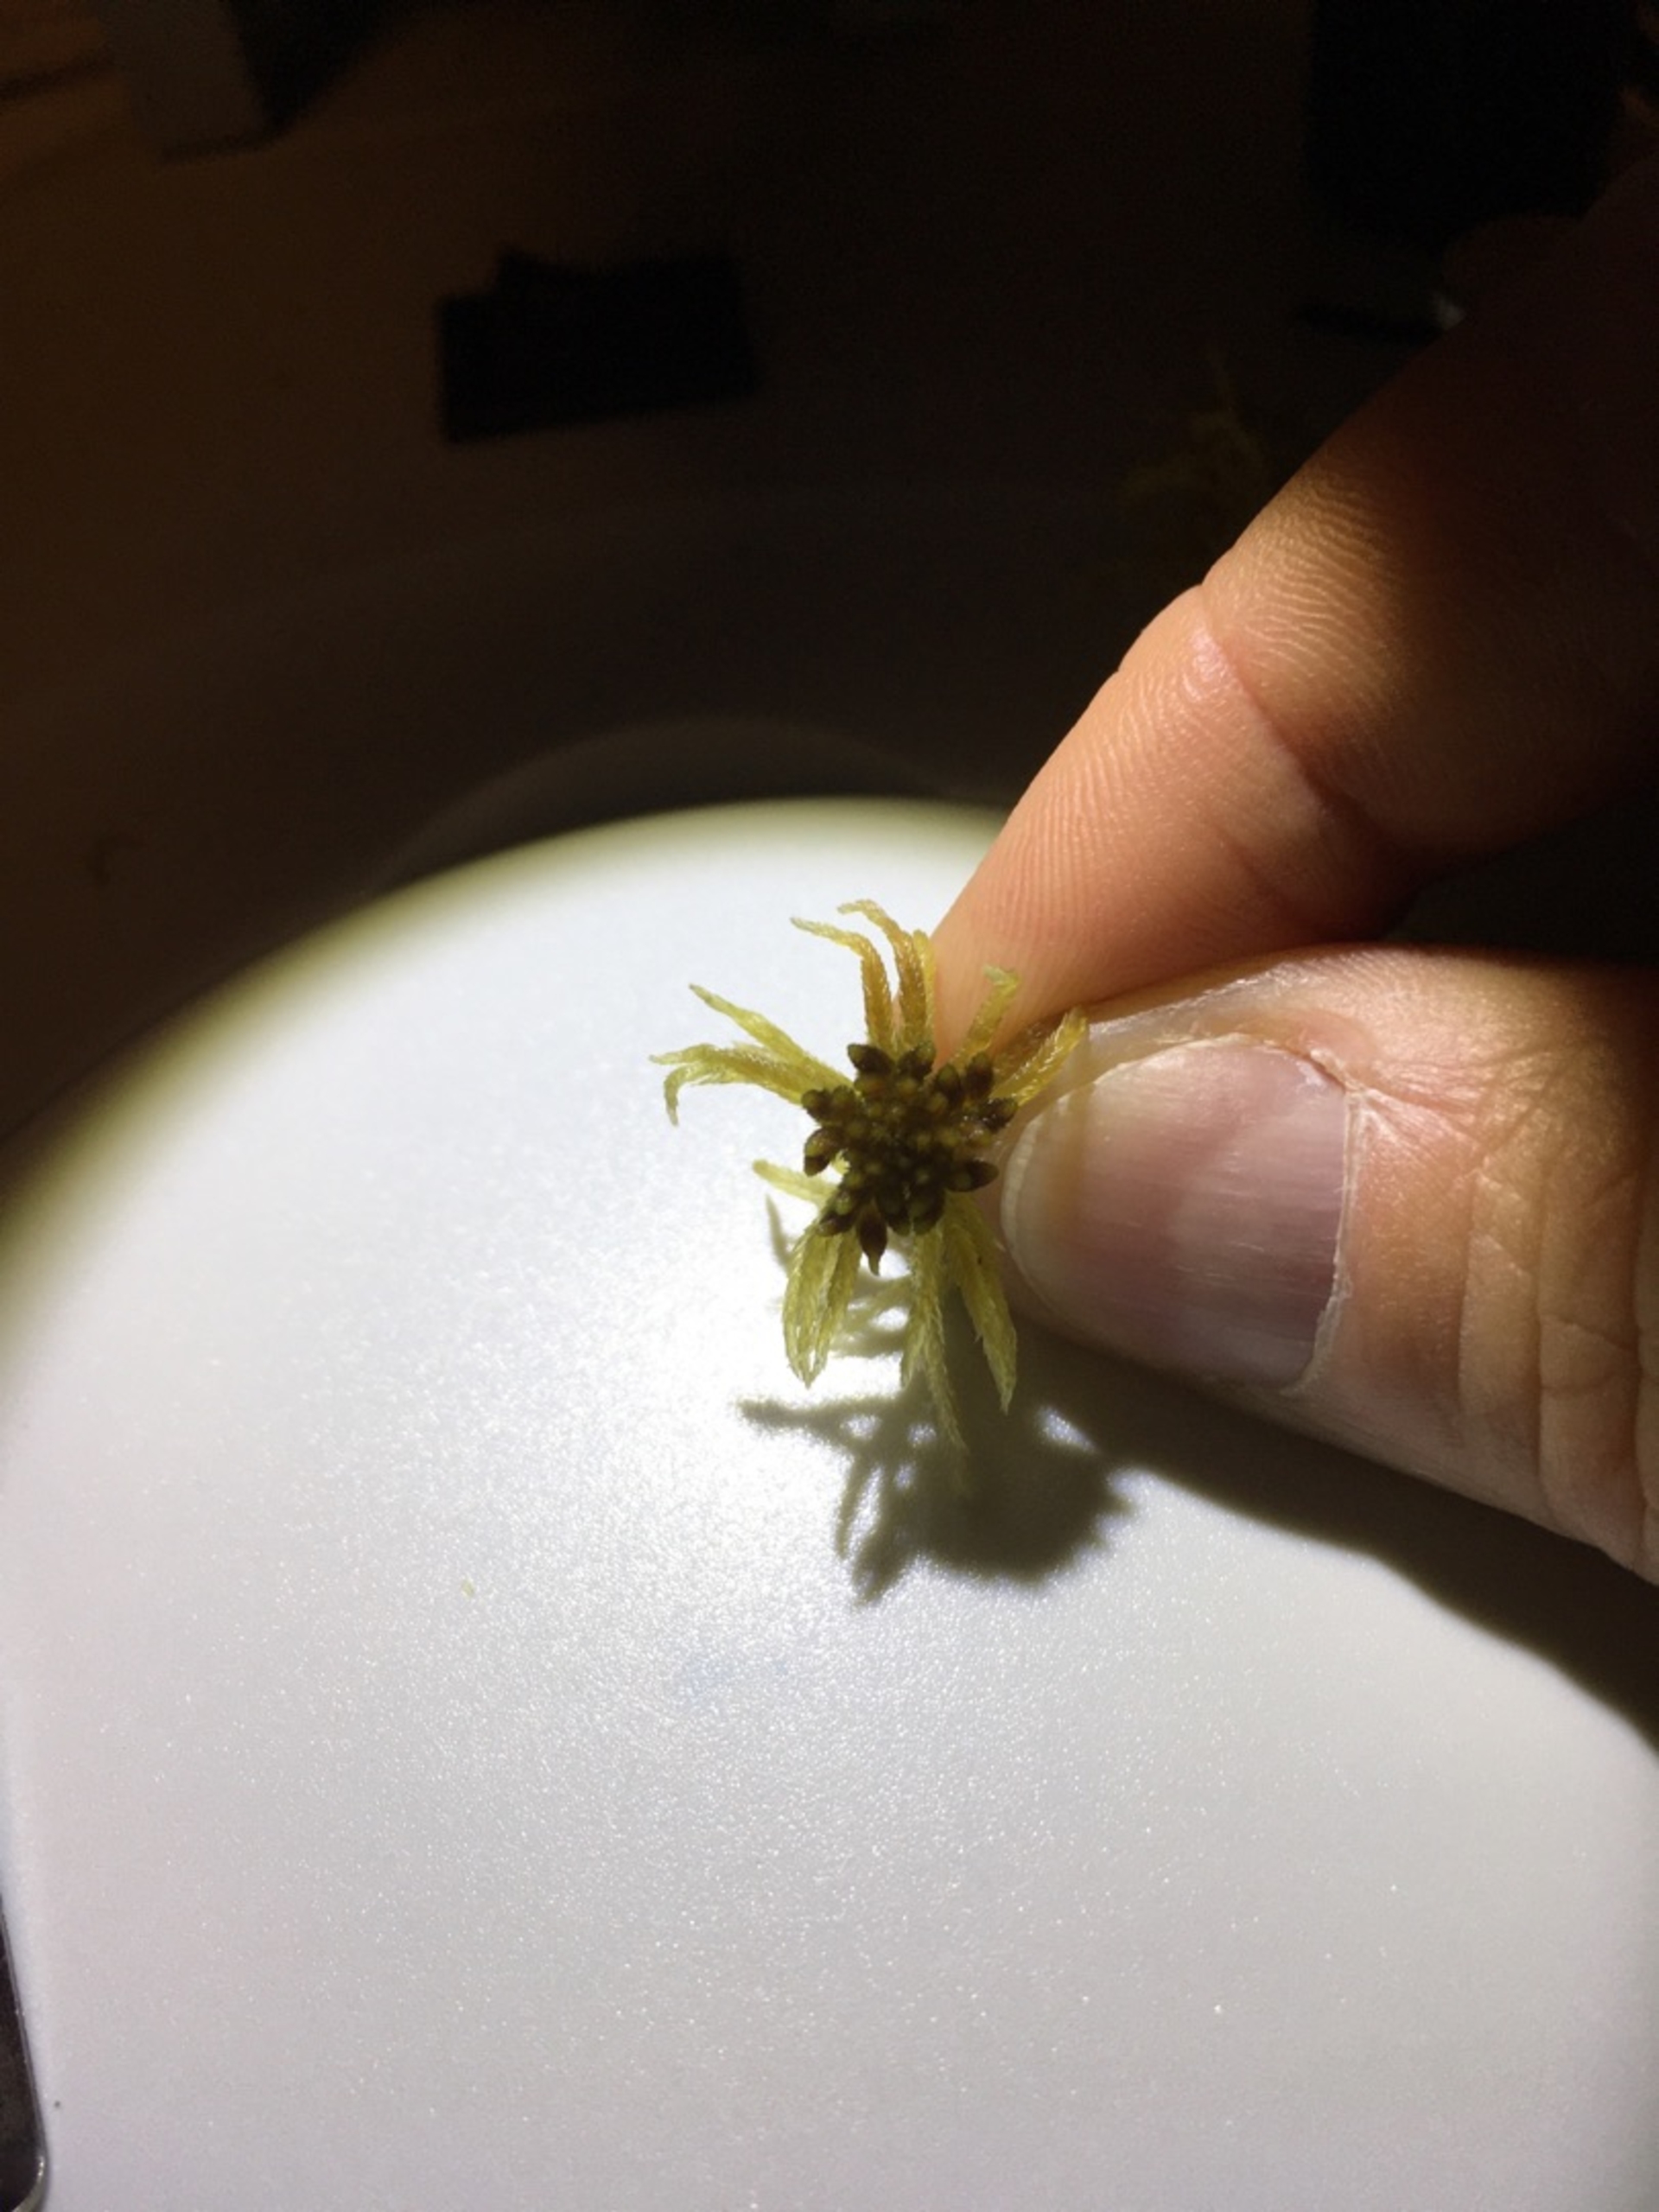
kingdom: Plantae
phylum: Bryophyta
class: Sphagnopsida
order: Sphagnales
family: Sphagnaceae
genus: Sphagnum
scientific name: Sphagnum flexuosum
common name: Kuplet tørvemos
